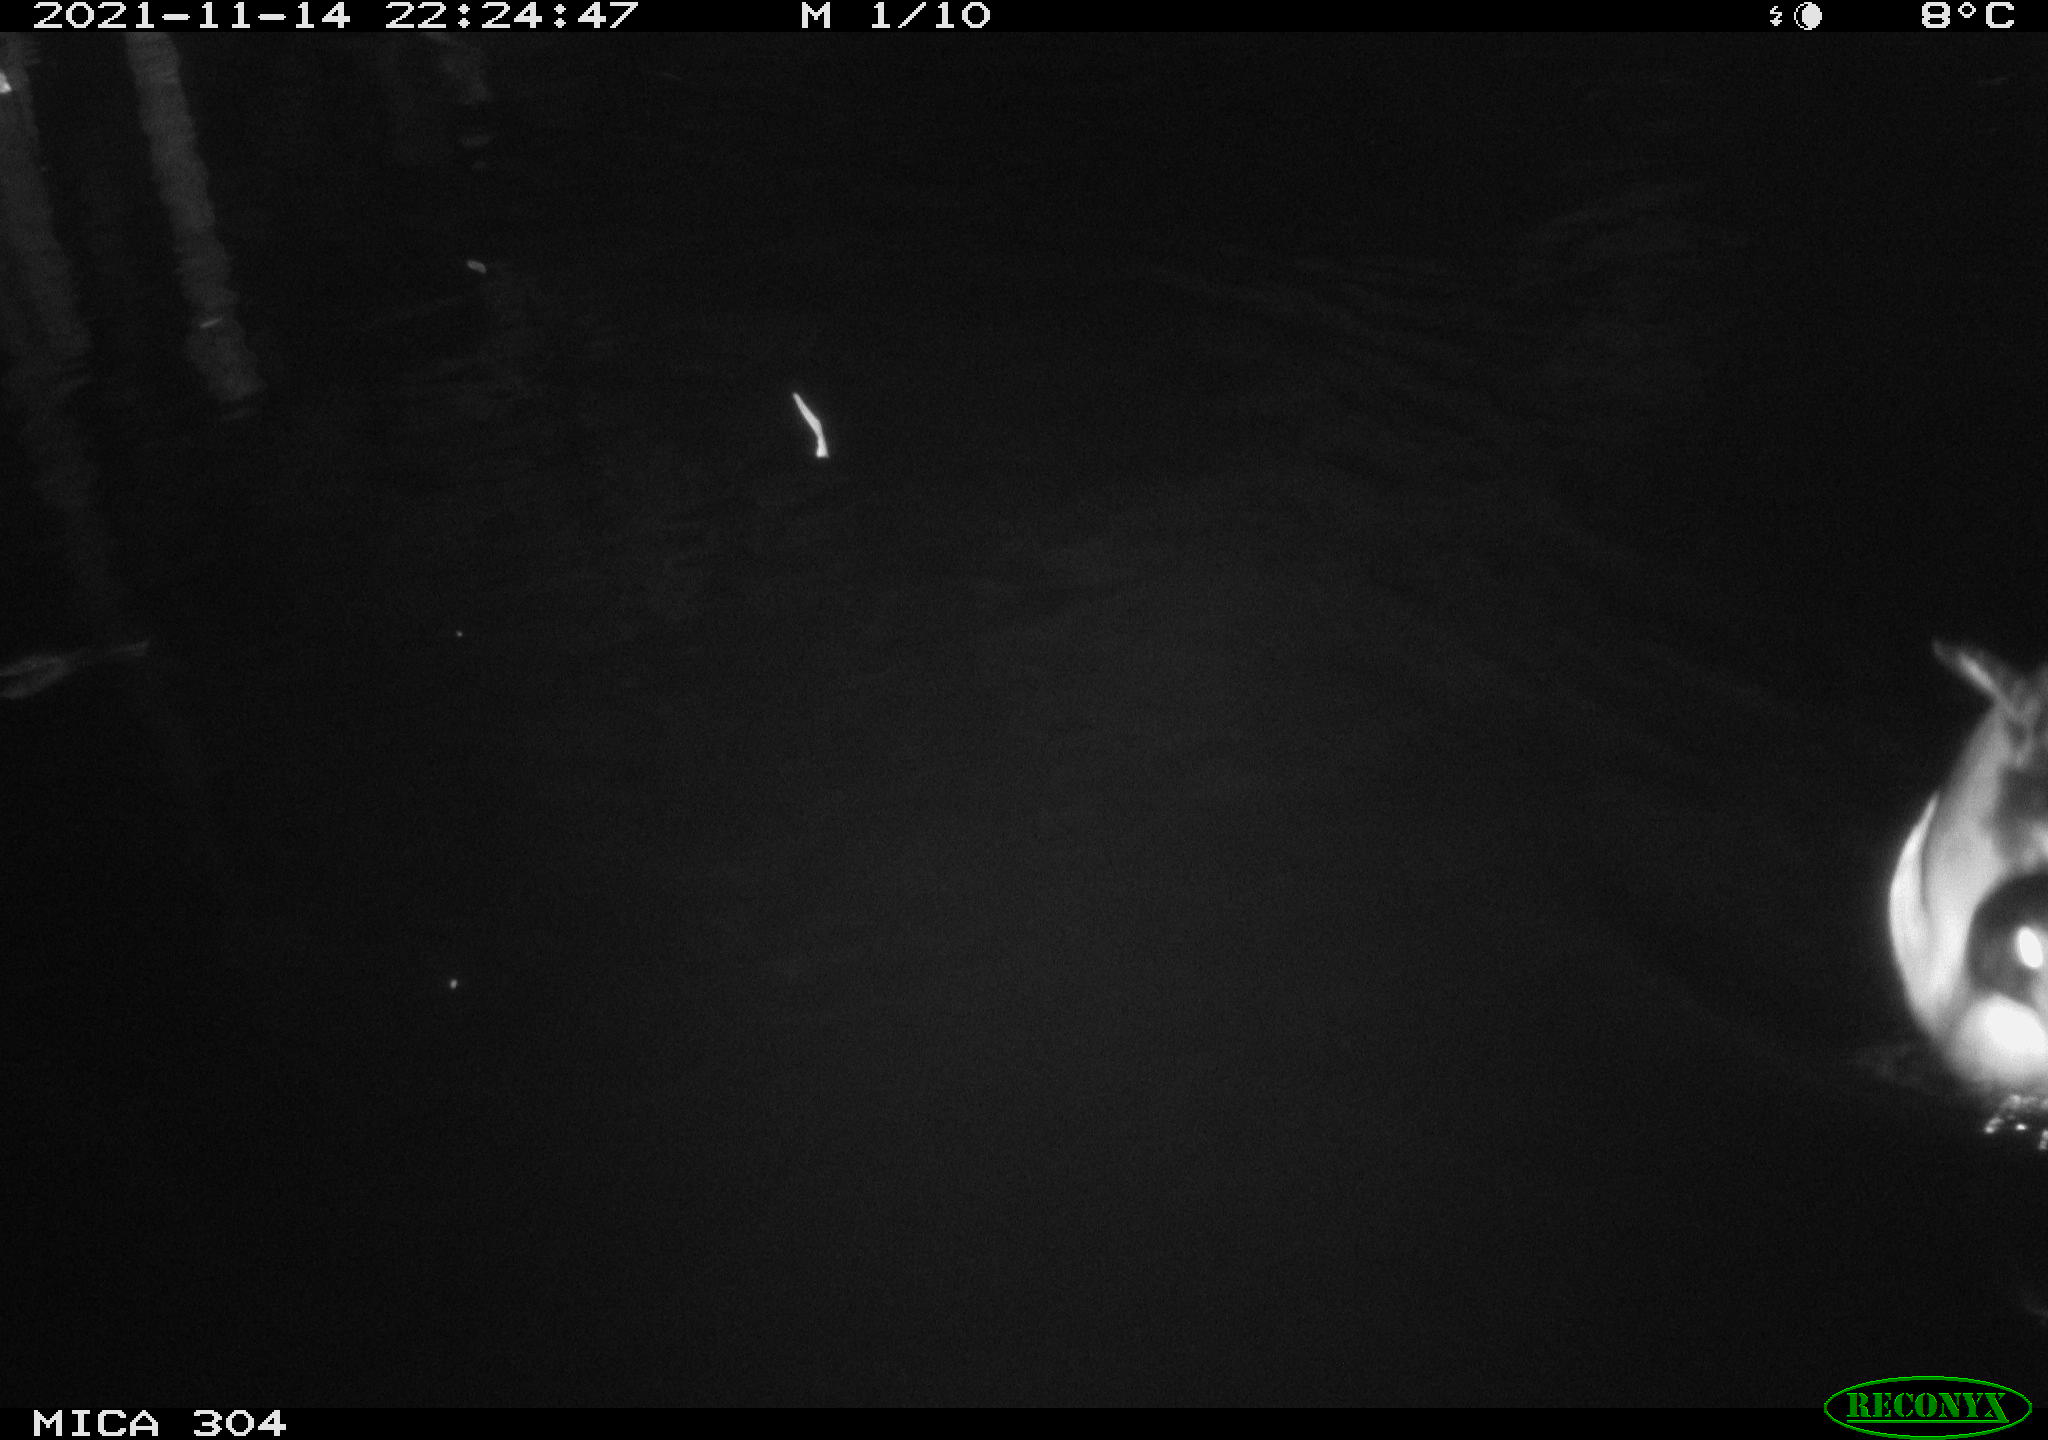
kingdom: Animalia
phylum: Chordata
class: Aves
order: Anseriformes
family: Anatidae
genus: Anas
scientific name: Anas platyrhynchos
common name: Mallard
